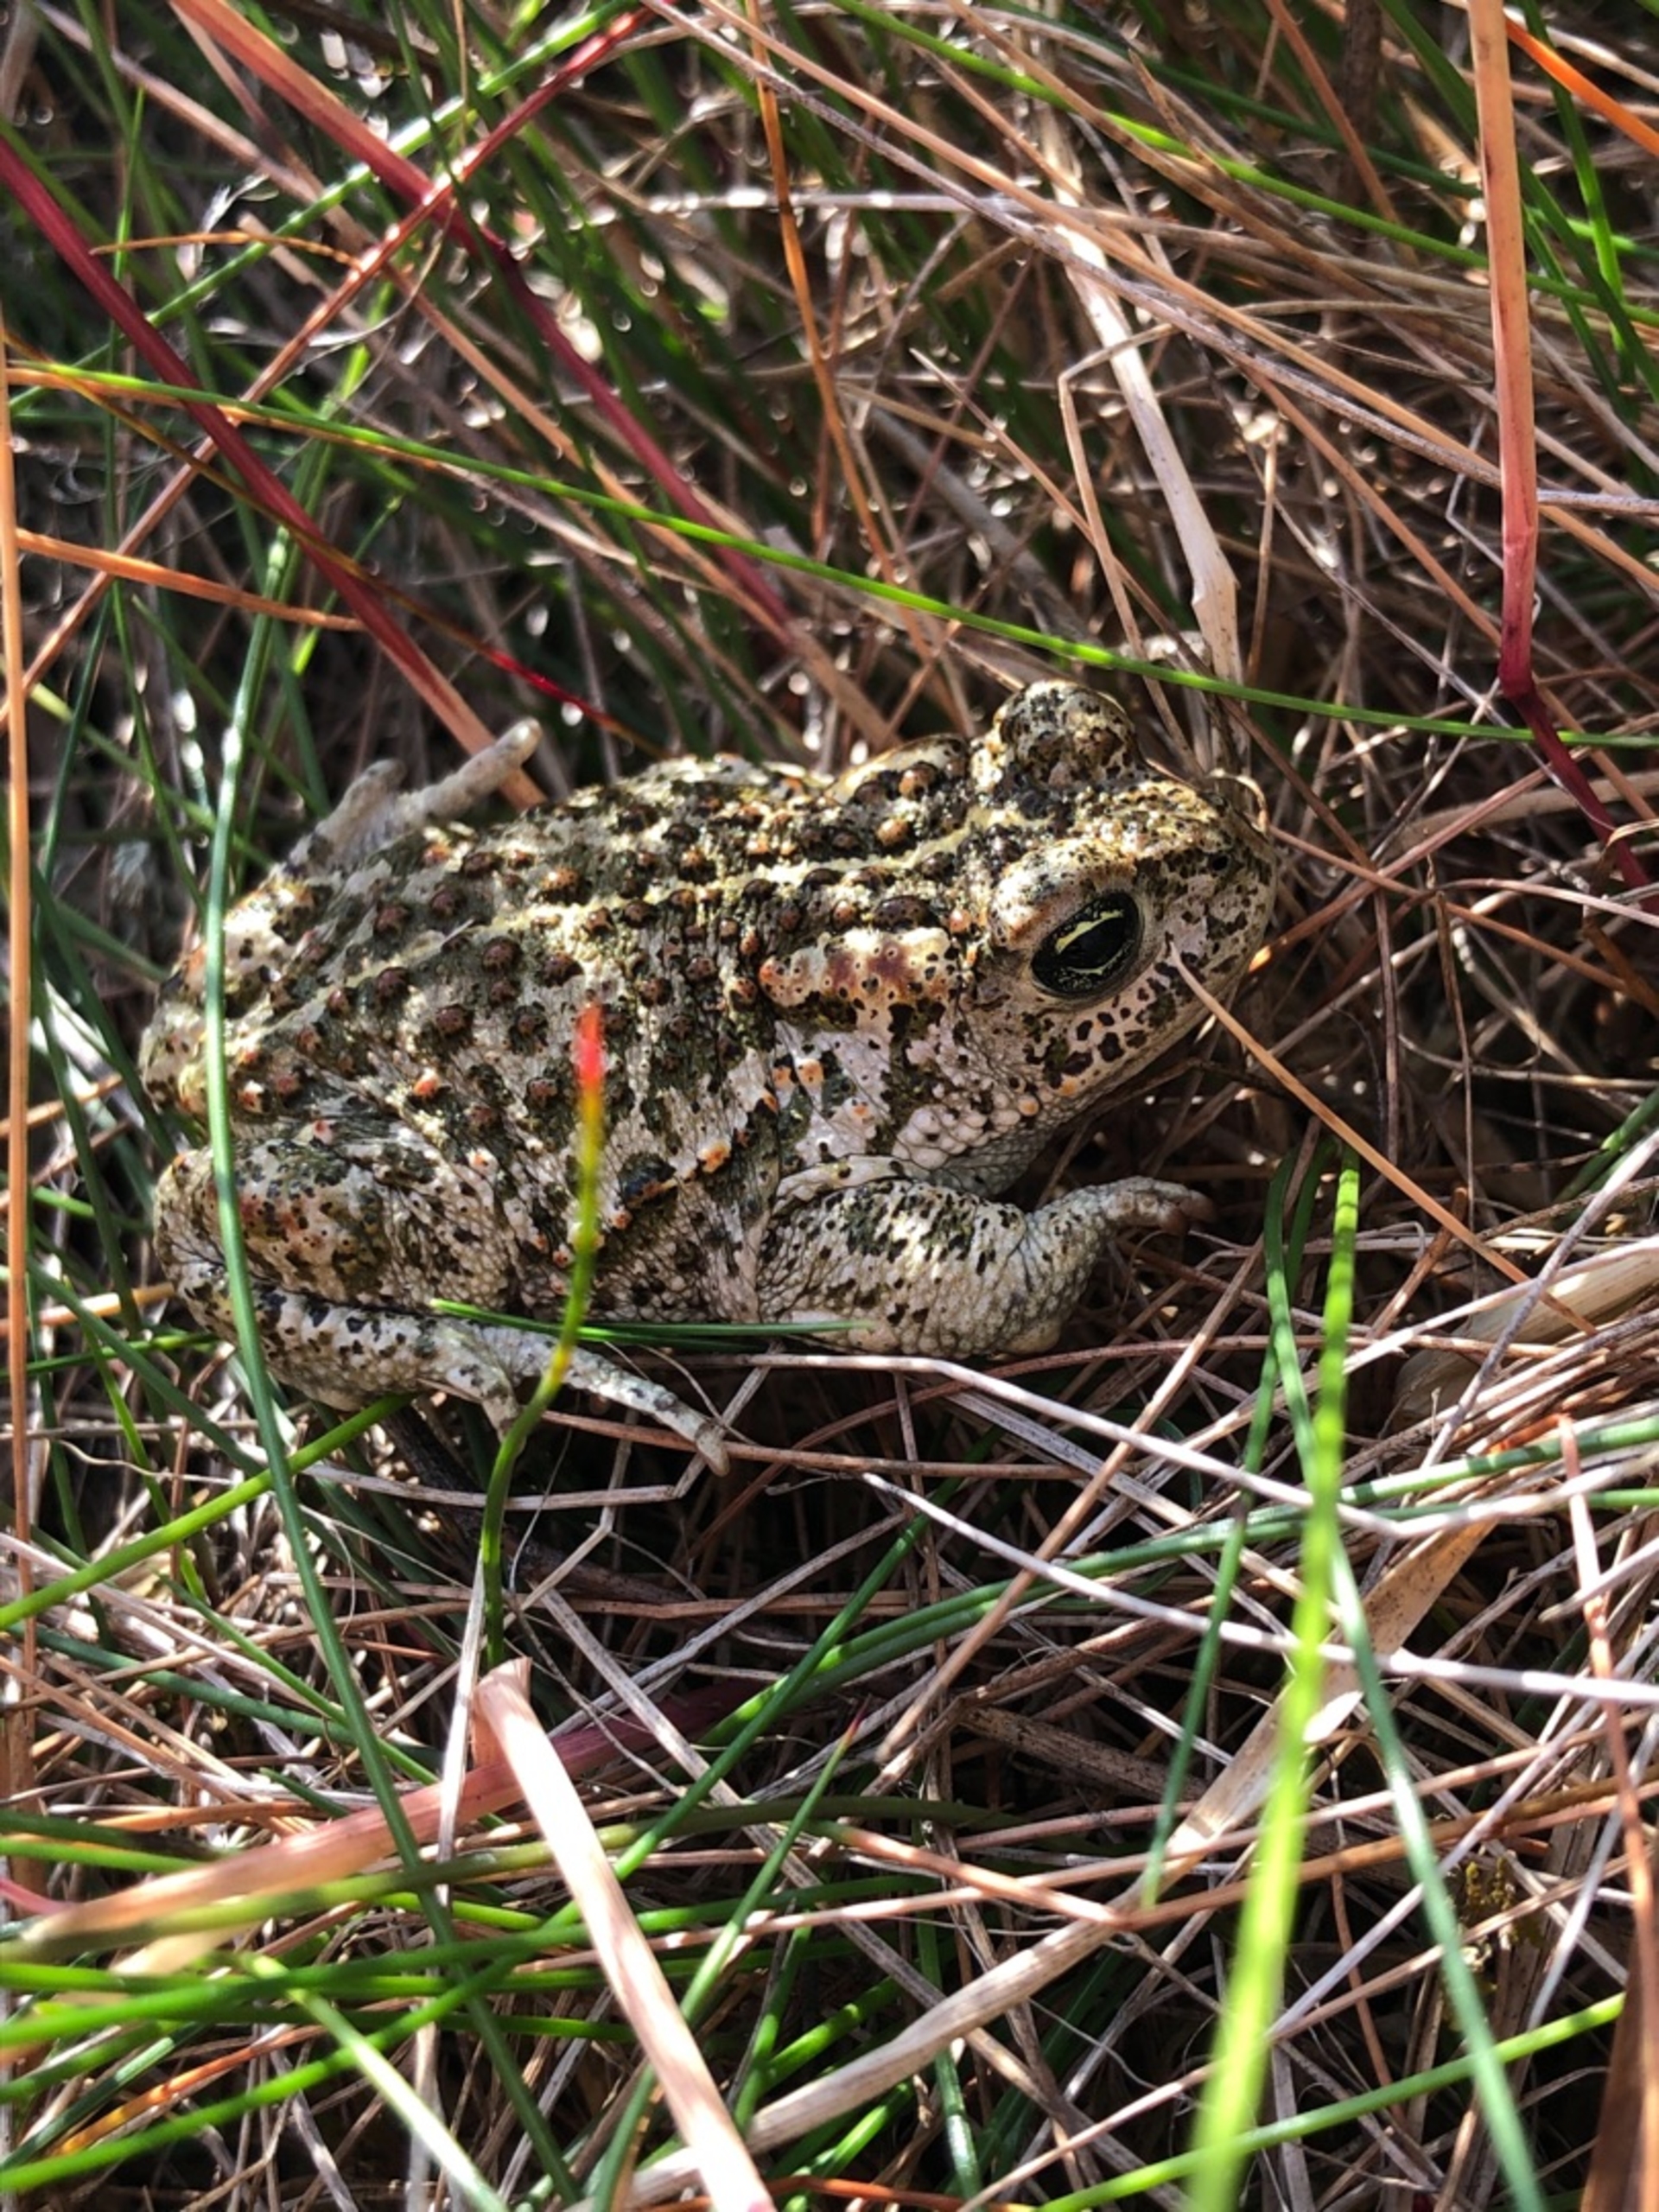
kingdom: Animalia
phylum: Chordata
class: Amphibia
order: Anura
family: Bufonidae
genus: Epidalea
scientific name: Epidalea calamita
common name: Strandtudse
